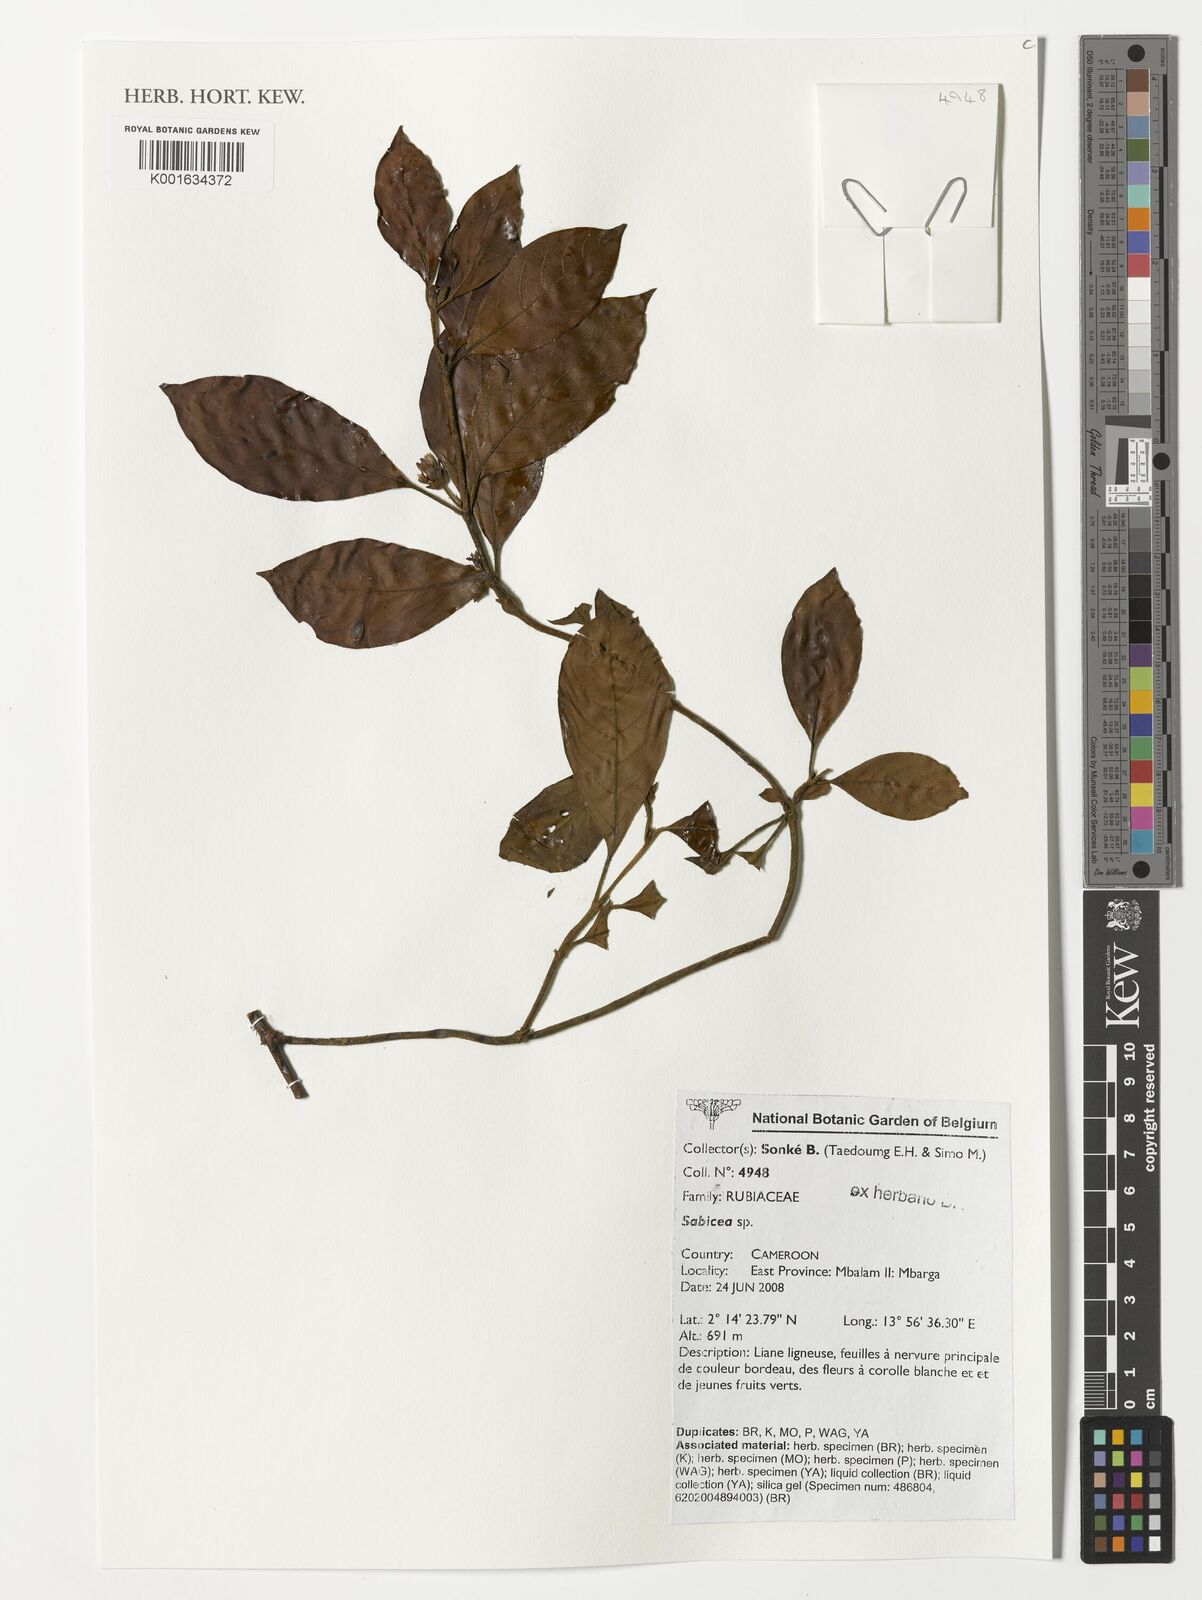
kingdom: Plantae
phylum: Tracheophyta
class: Magnoliopsida
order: Gentianales
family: Rubiaceae
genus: Sabicea
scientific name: Sabicea
